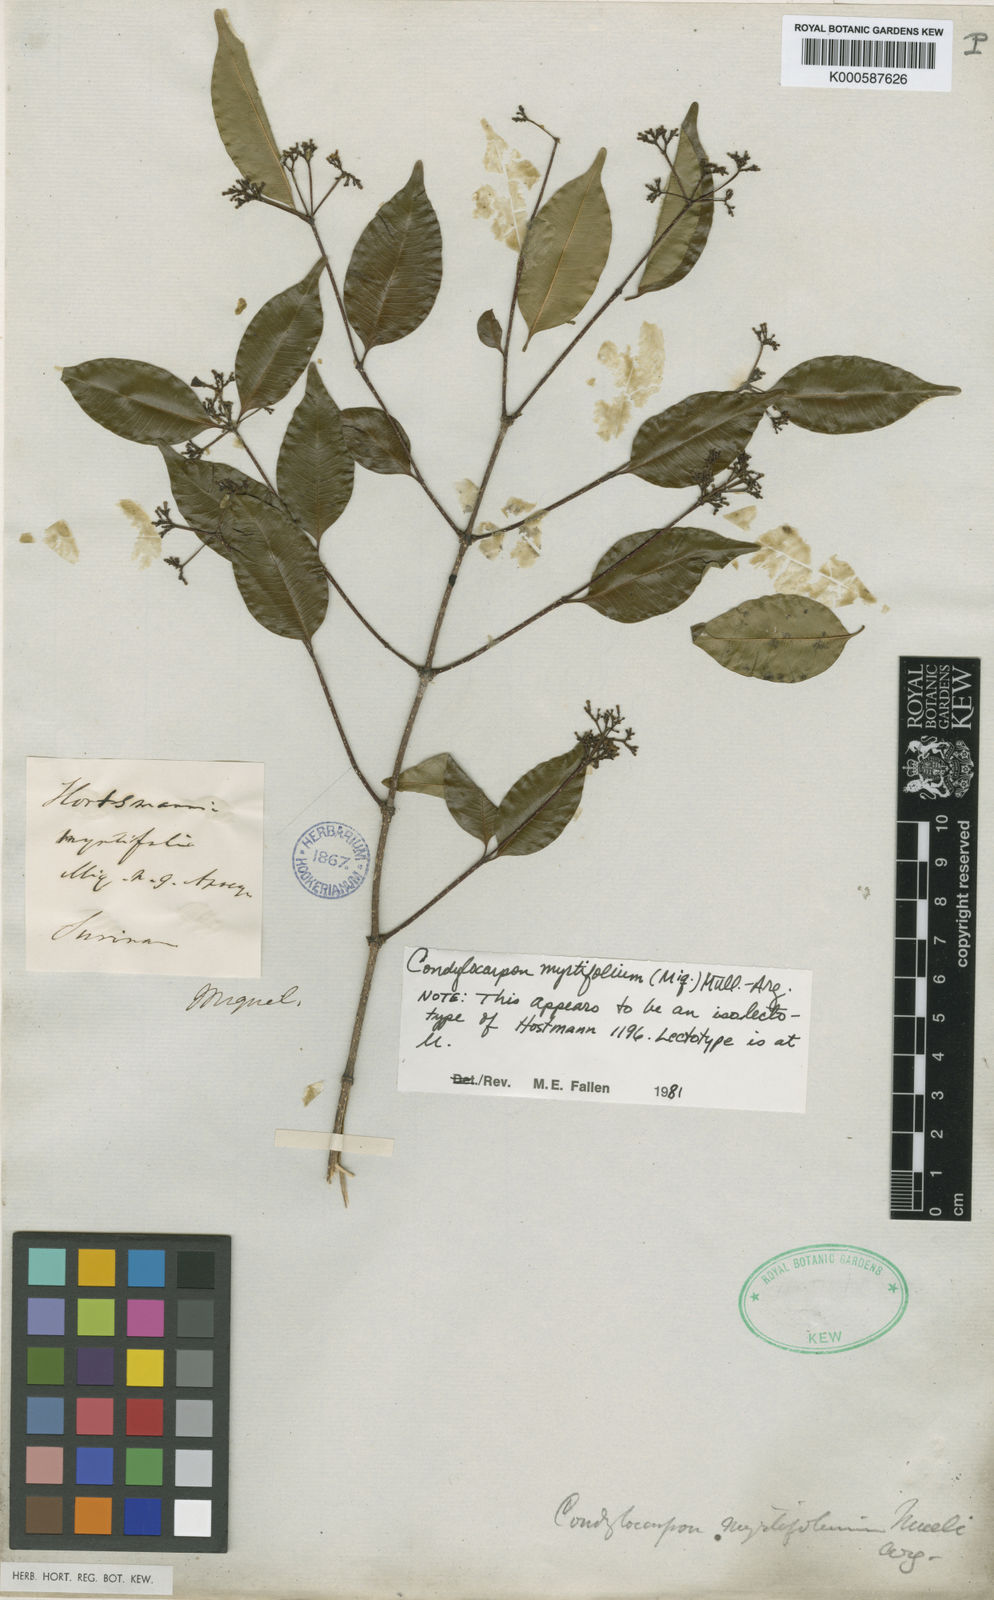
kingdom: Plantae
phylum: Tracheophyta
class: Magnoliopsida
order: Gentianales
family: Apocynaceae
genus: Condylocarpon
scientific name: Condylocarpon
